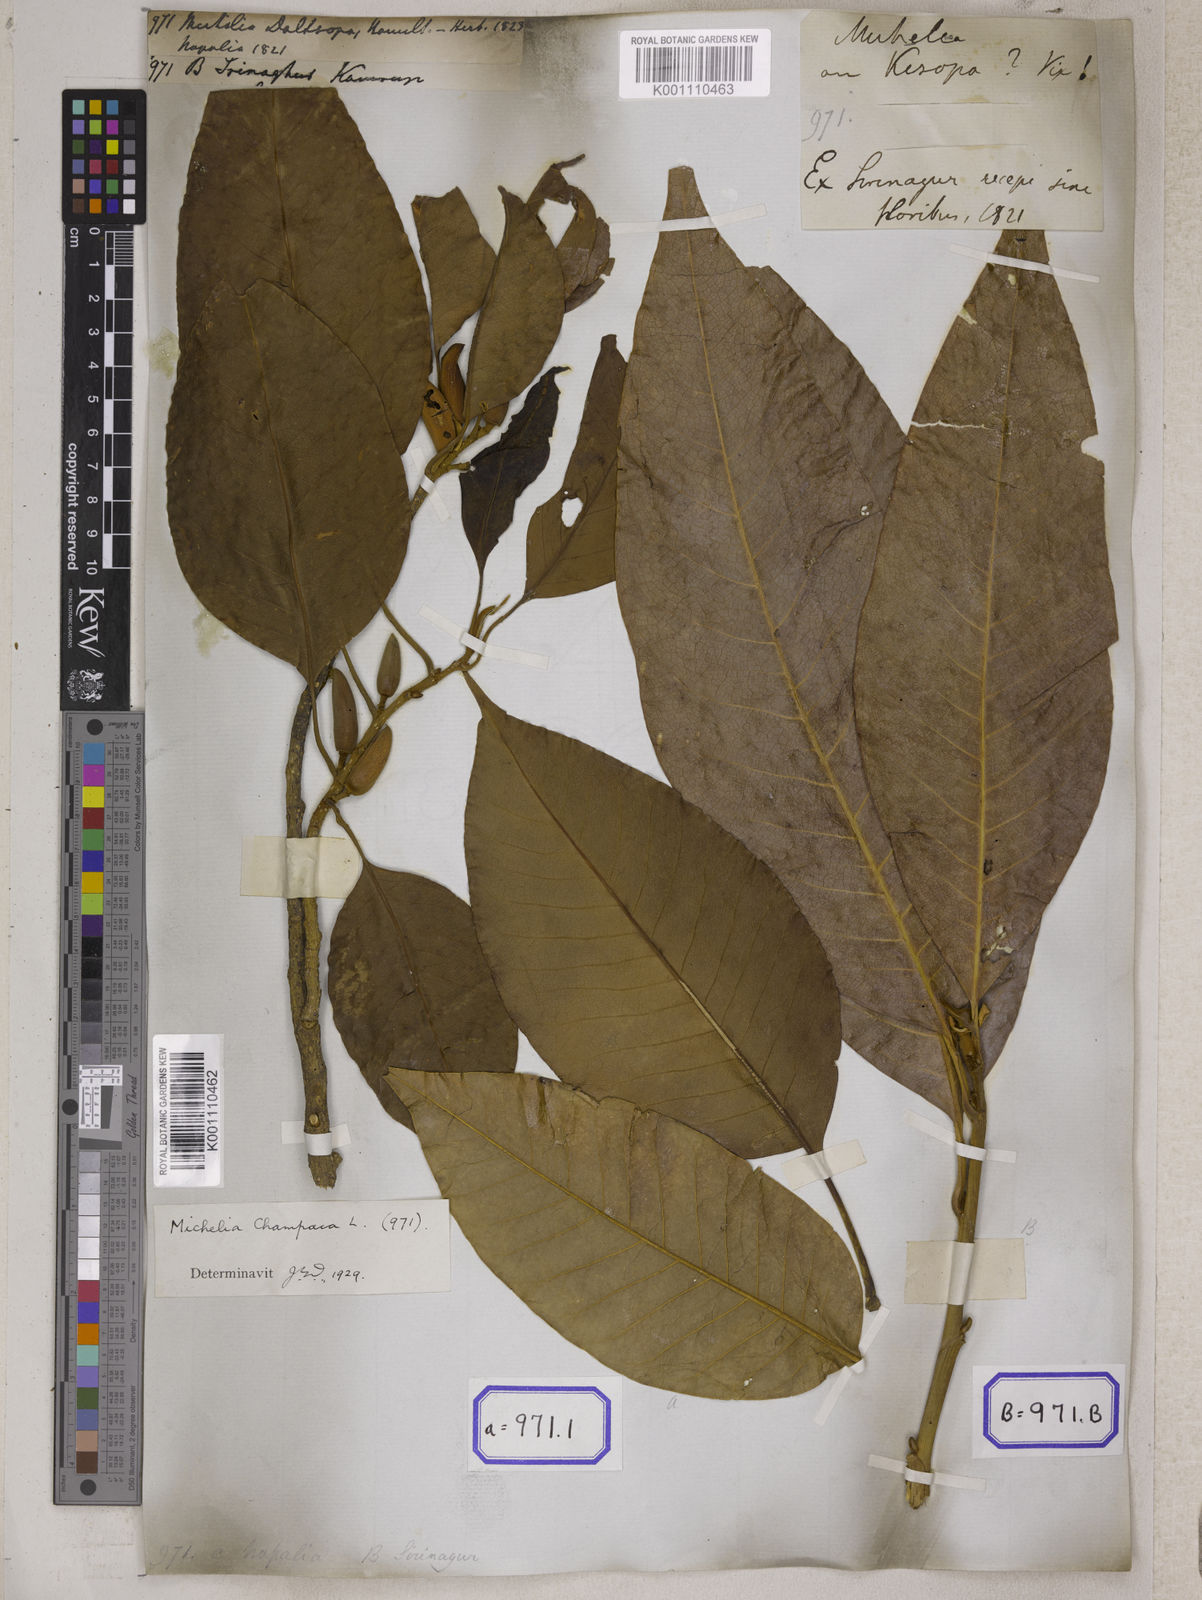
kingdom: Plantae
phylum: Tracheophyta
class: Magnoliopsida
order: Magnoliales
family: Magnoliaceae
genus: Michelia
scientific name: Michelia
